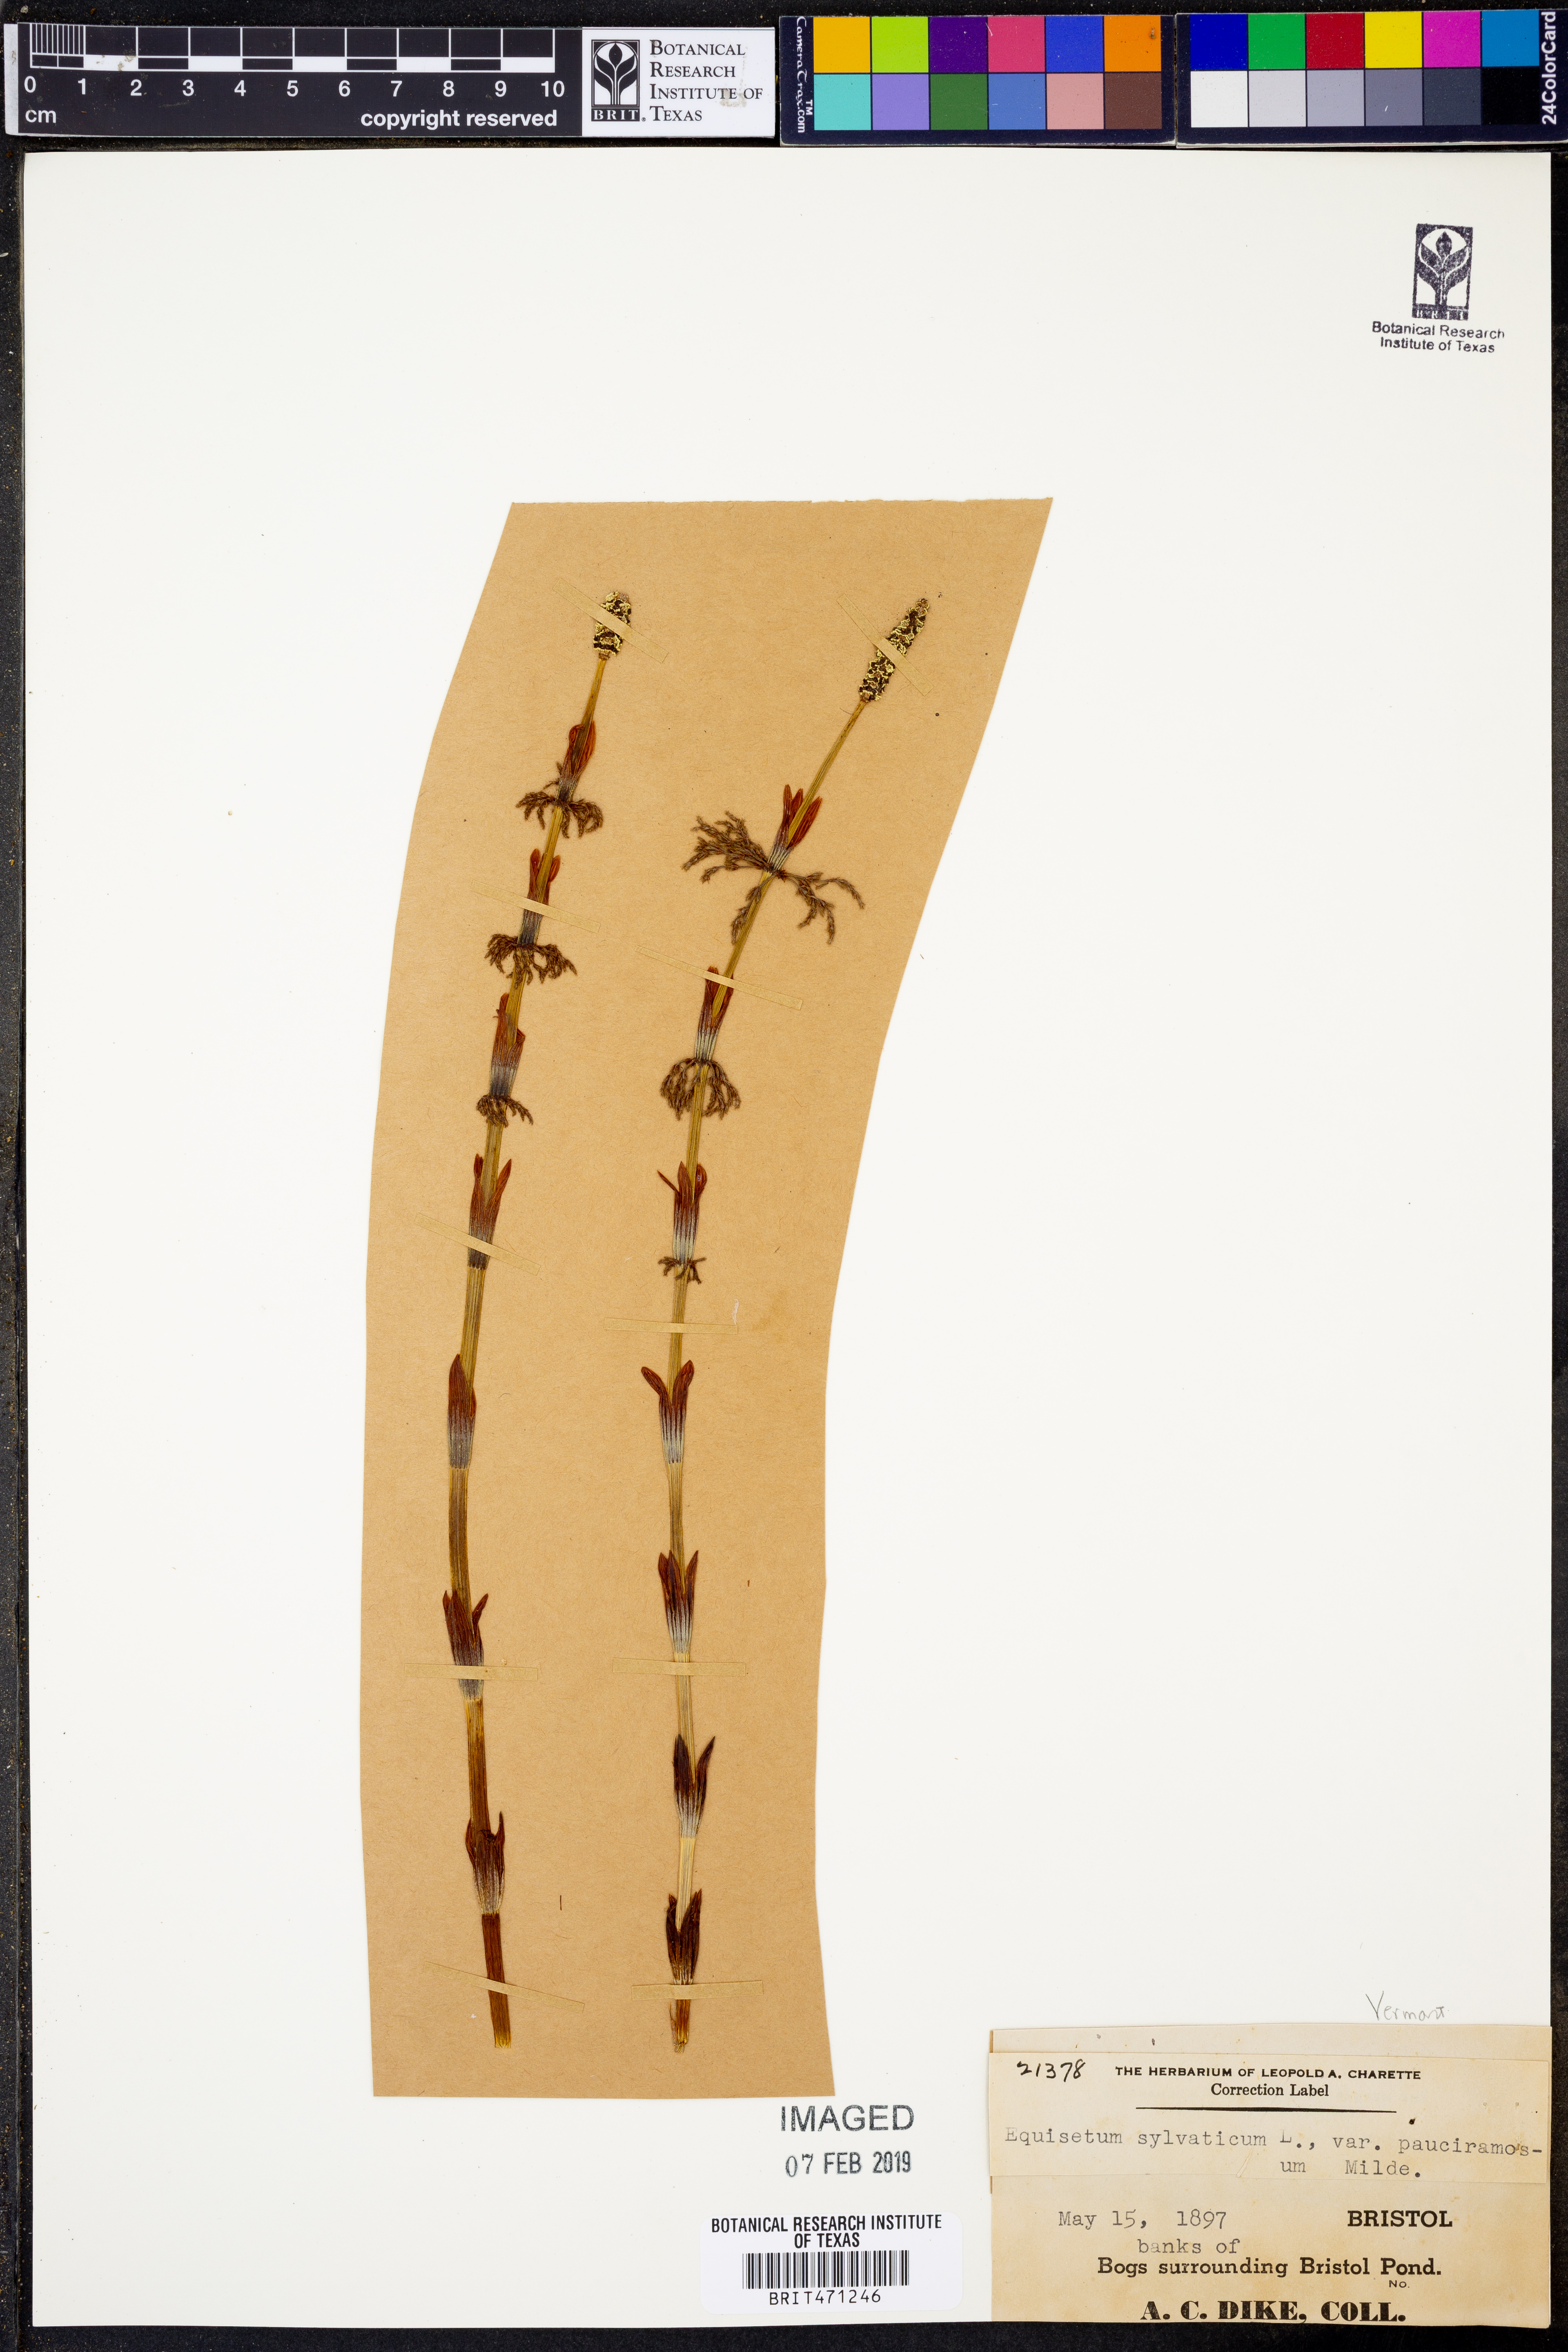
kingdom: Plantae
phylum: Tracheophyta
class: Polypodiopsida
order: Equisetales
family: Equisetaceae
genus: Equisetum
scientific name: Equisetum sylvaticum
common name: Wood horsetail
